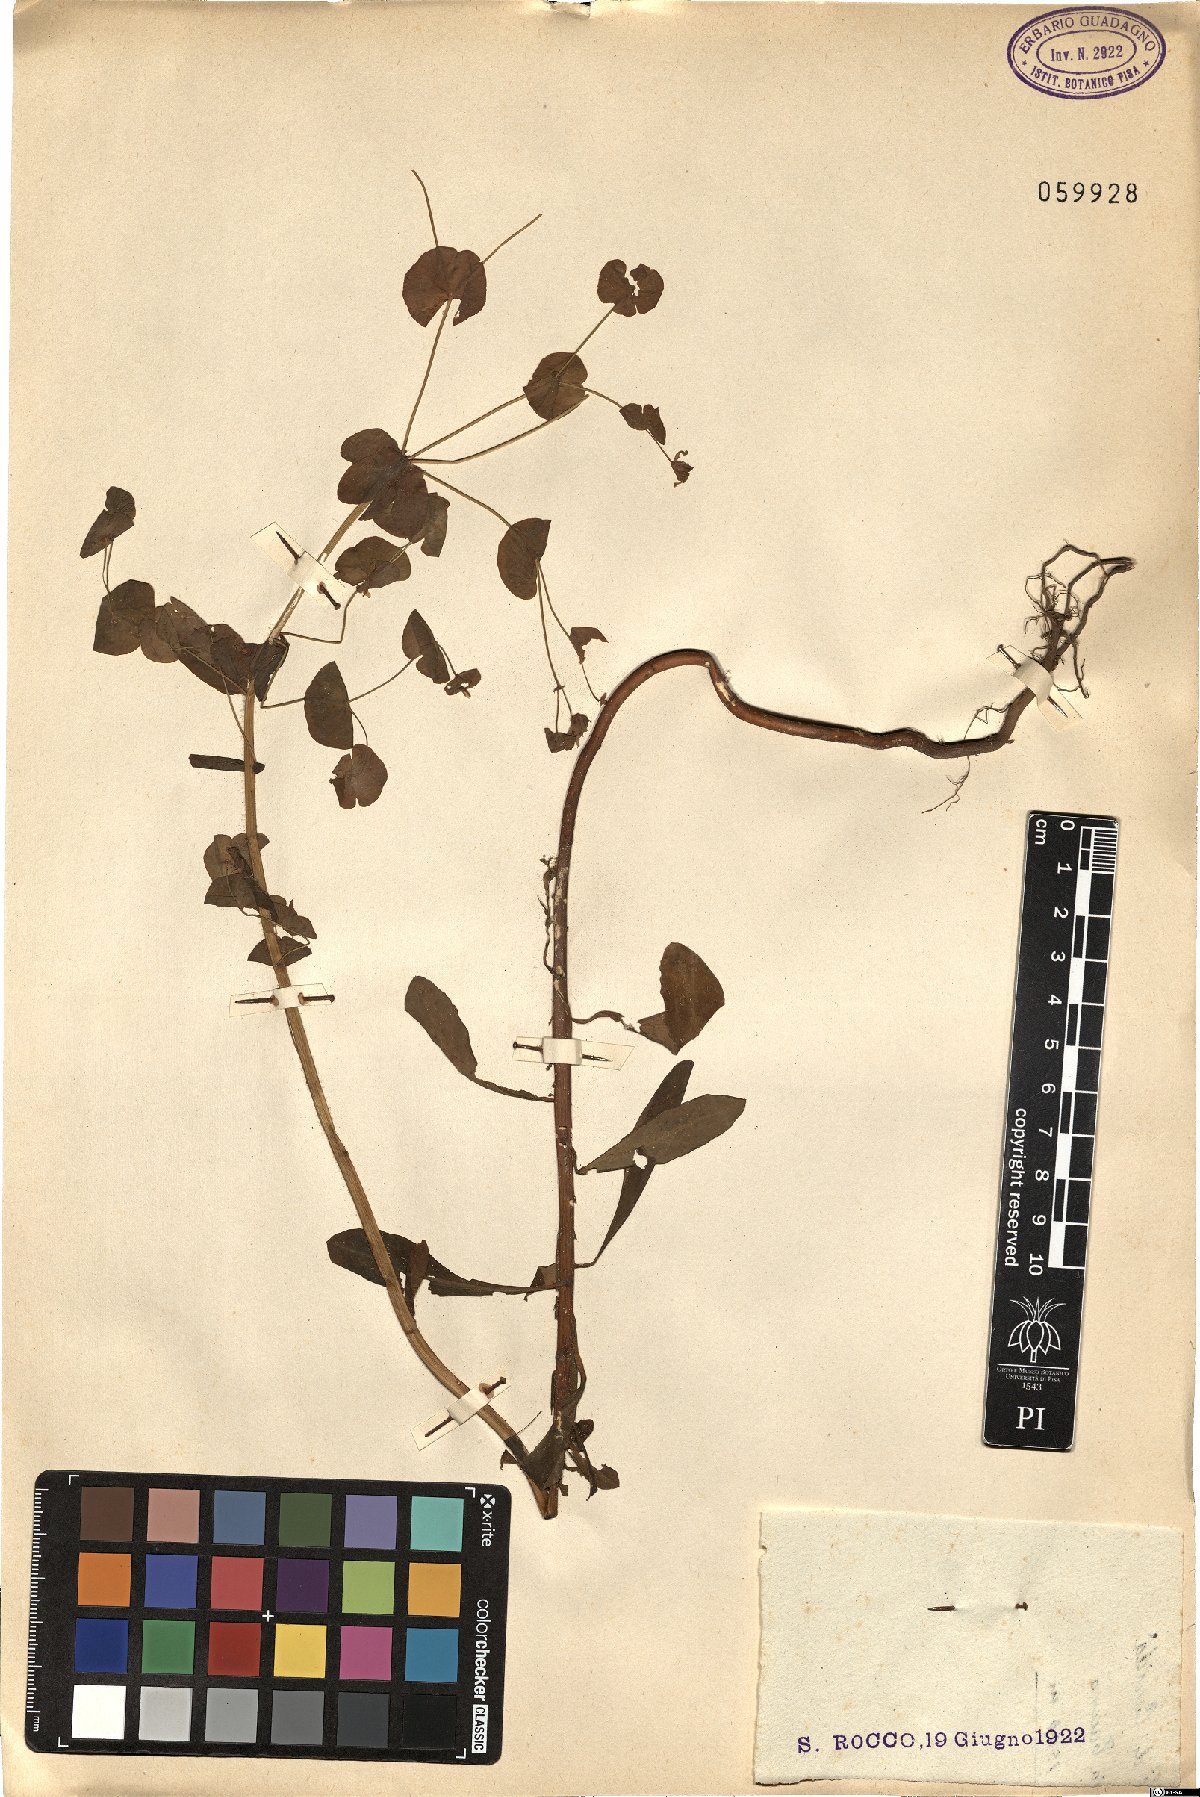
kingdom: Plantae
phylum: Tracheophyta
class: Magnoliopsida
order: Malpighiales
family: Euphorbiaceae
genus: Euphorbia
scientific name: Euphorbia
